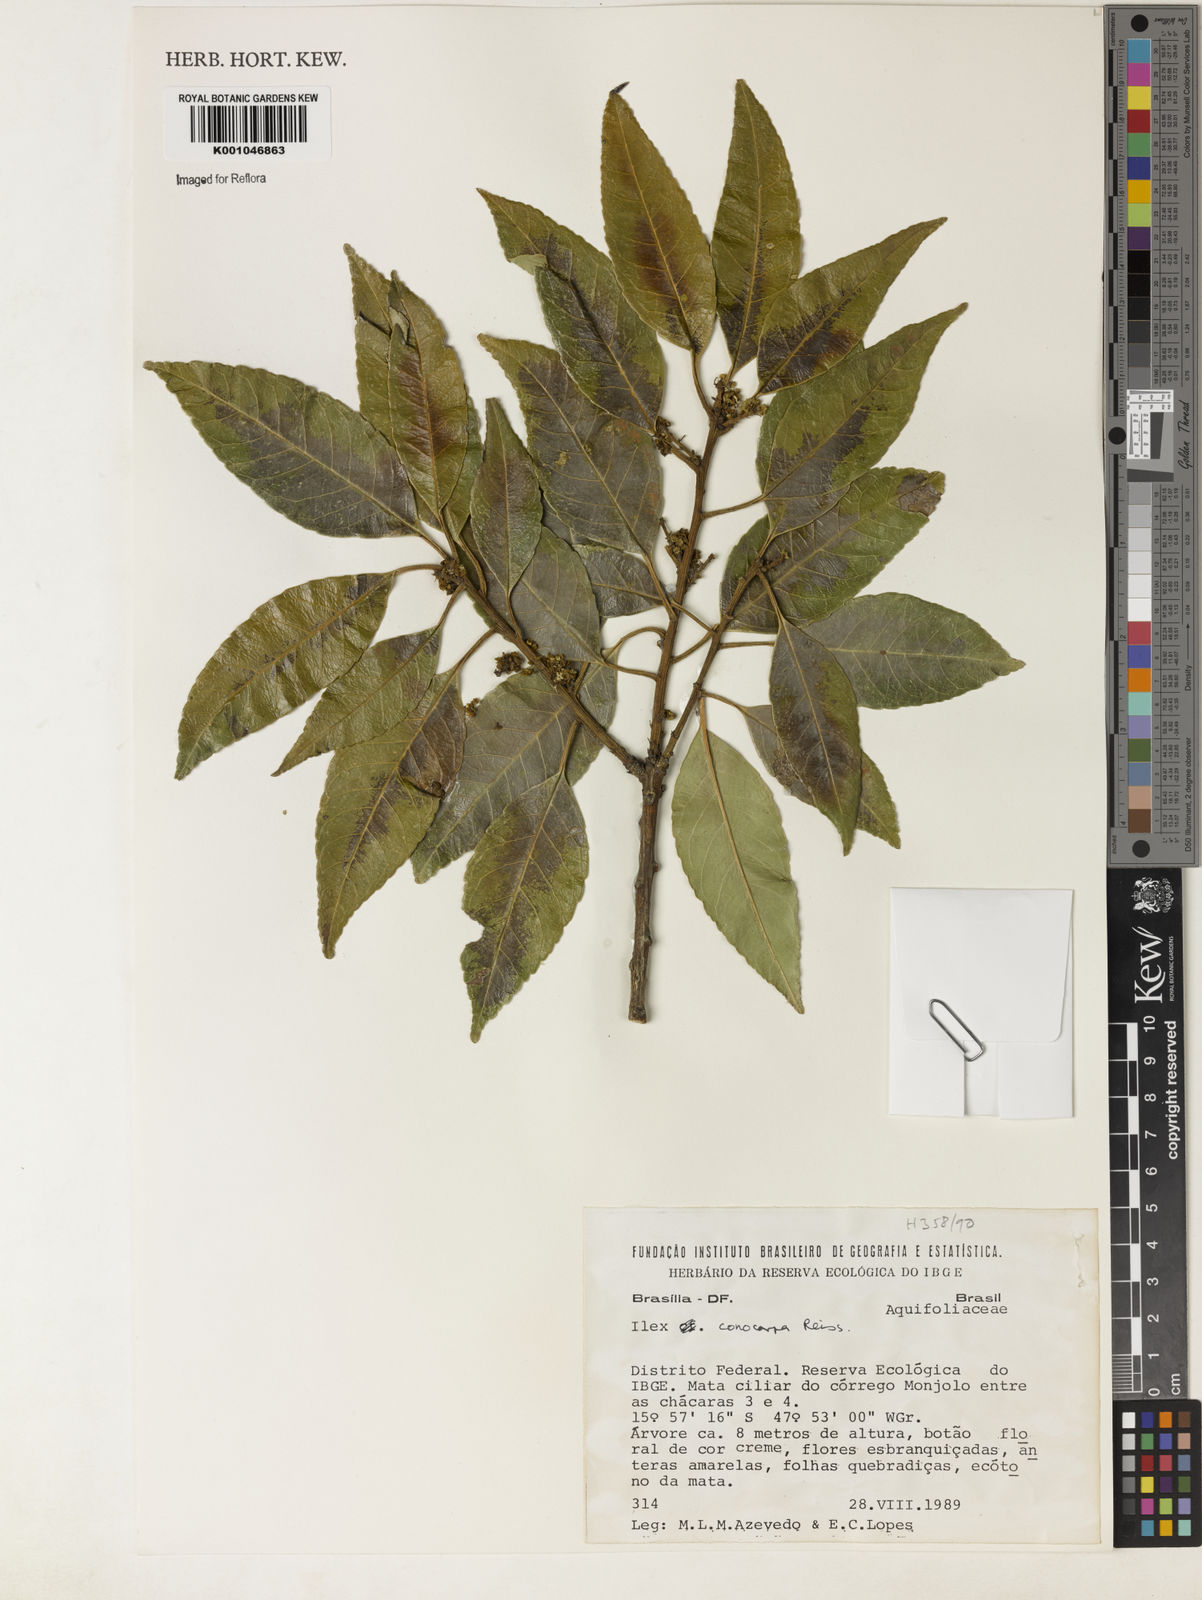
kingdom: Plantae
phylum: Tracheophyta
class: Magnoliopsida
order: Aquifoliales
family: Aquifoliaceae
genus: Ilex
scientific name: Ilex conocarpa
